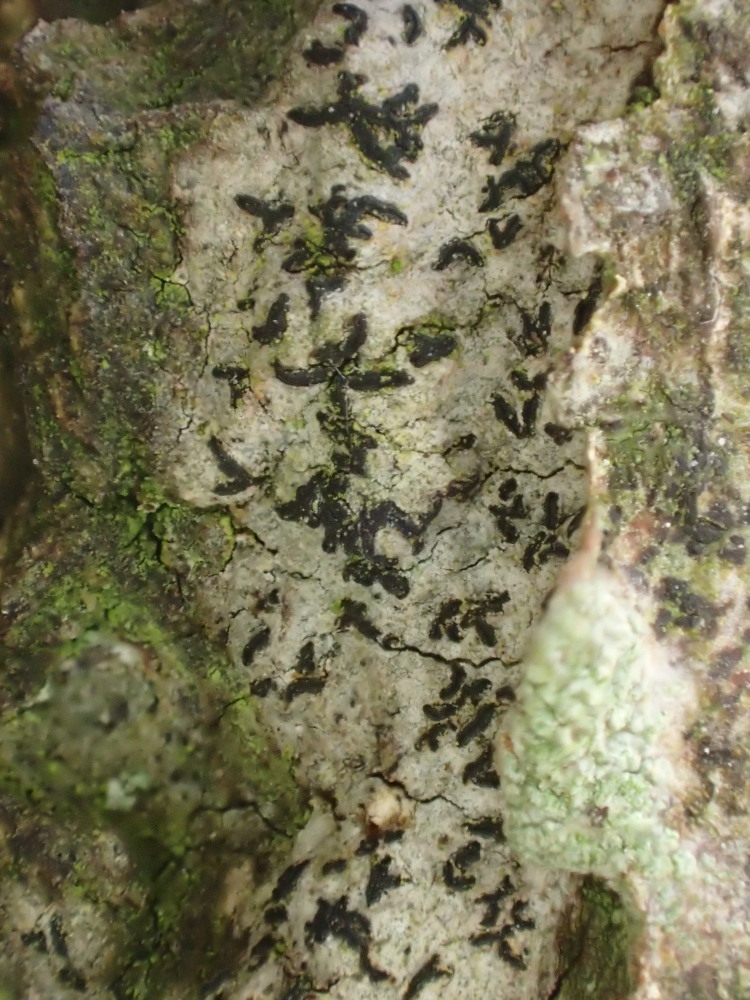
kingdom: Fungi
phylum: Ascomycota
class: Arthoniomycetes
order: Arthoniales
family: Lecanographaceae
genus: Alyxoria
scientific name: Alyxoria culmigena
